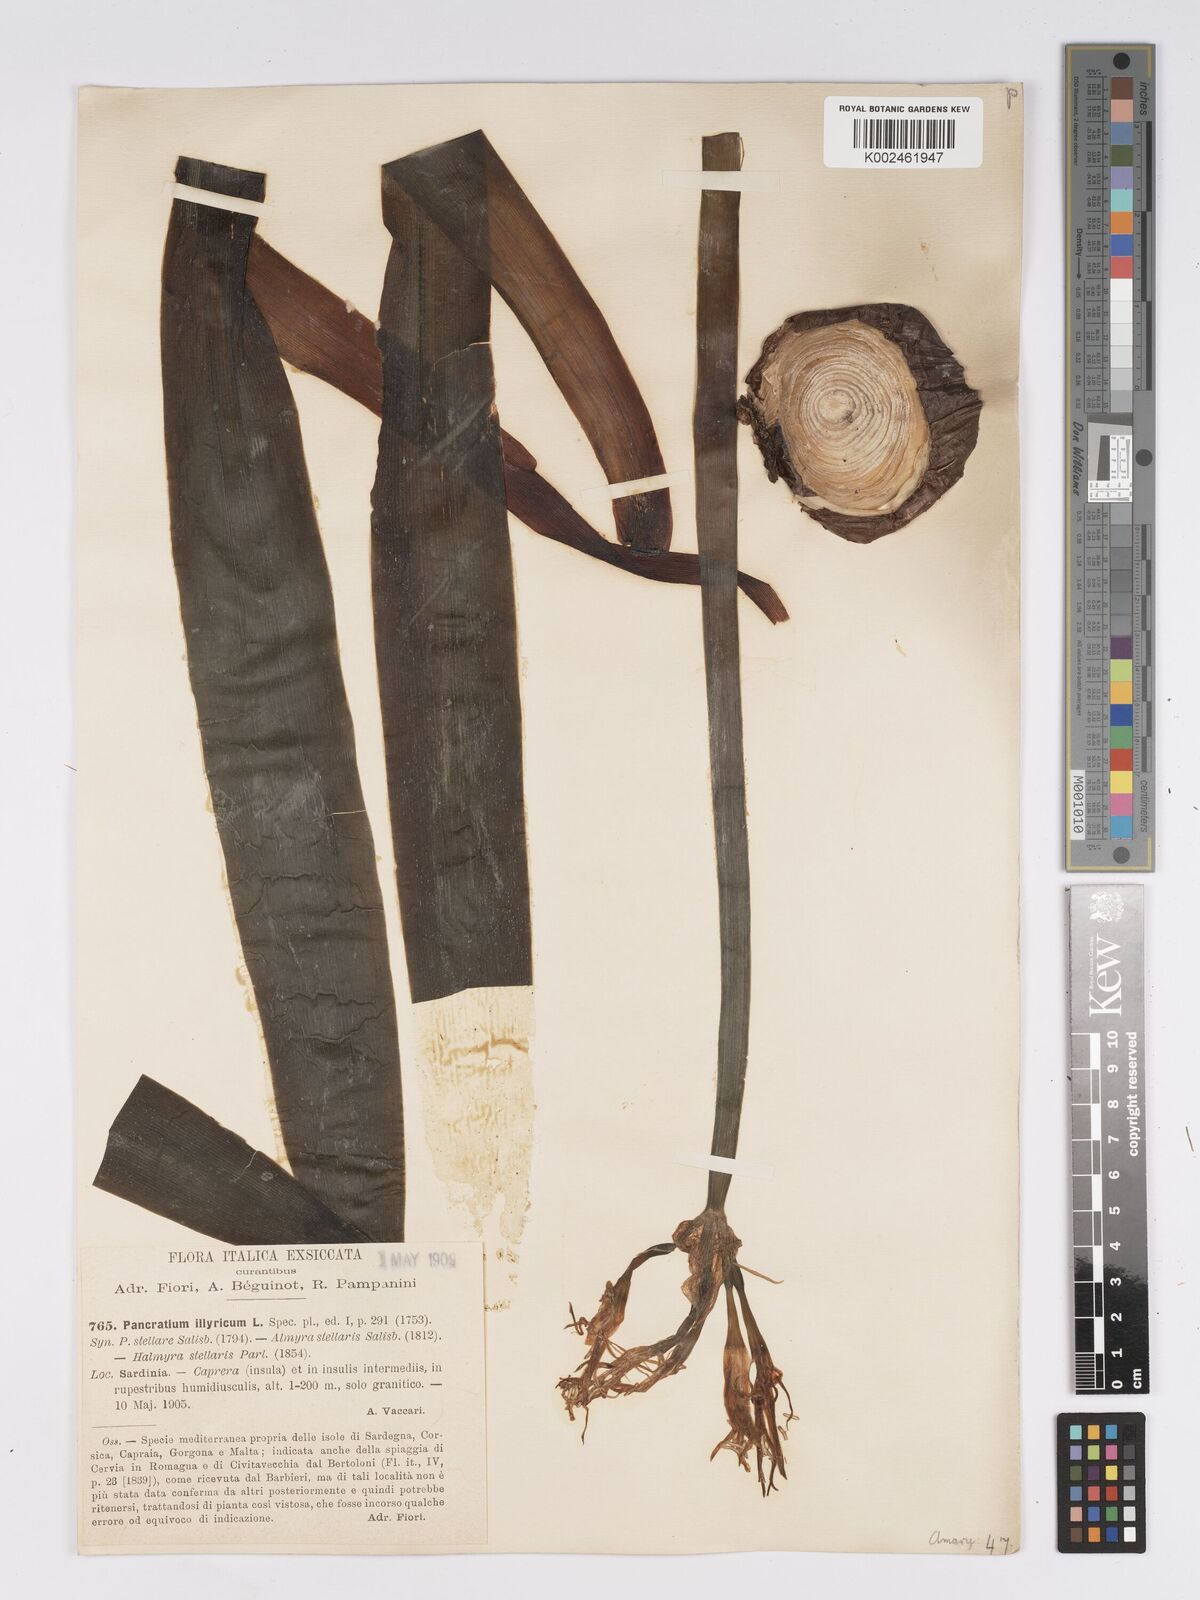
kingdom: Plantae
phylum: Tracheophyta
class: Liliopsida
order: Asparagales
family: Amaryllidaceae
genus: Pancratium
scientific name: Pancratium illyricum
